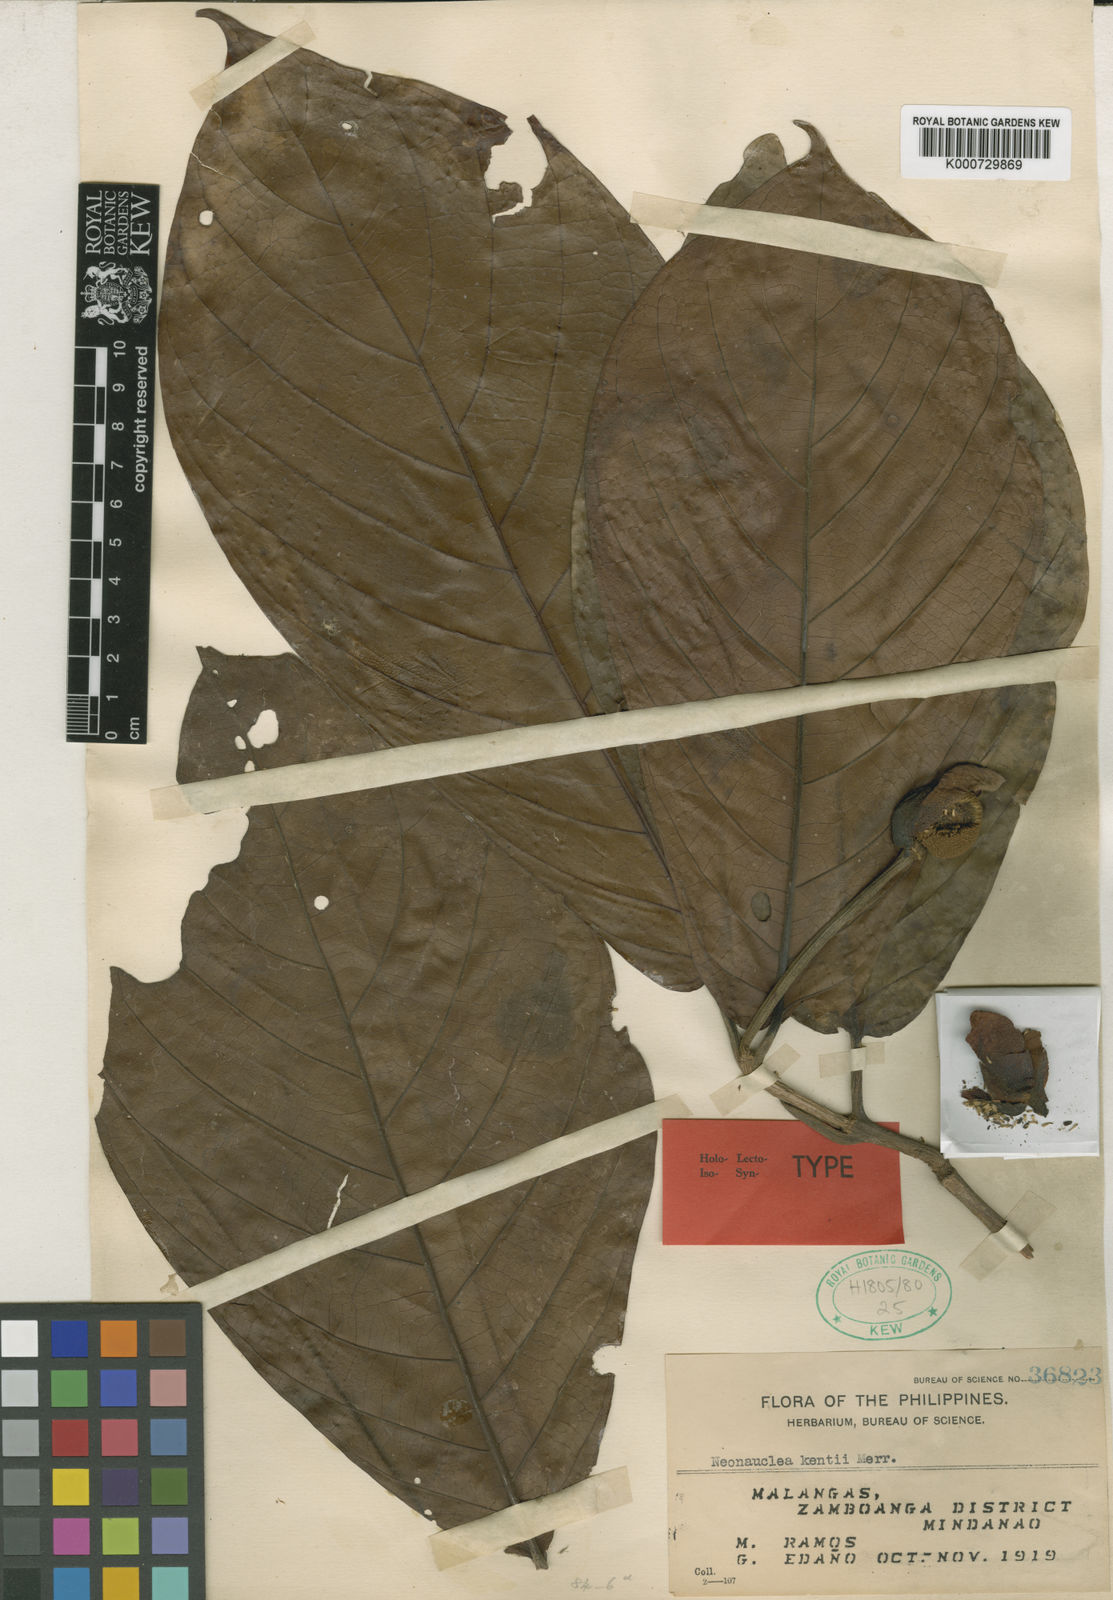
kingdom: Plantae
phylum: Tracheophyta
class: Magnoliopsida
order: Gentianales
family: Rubiaceae
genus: Neonauclea
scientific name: Neonauclea kentii
